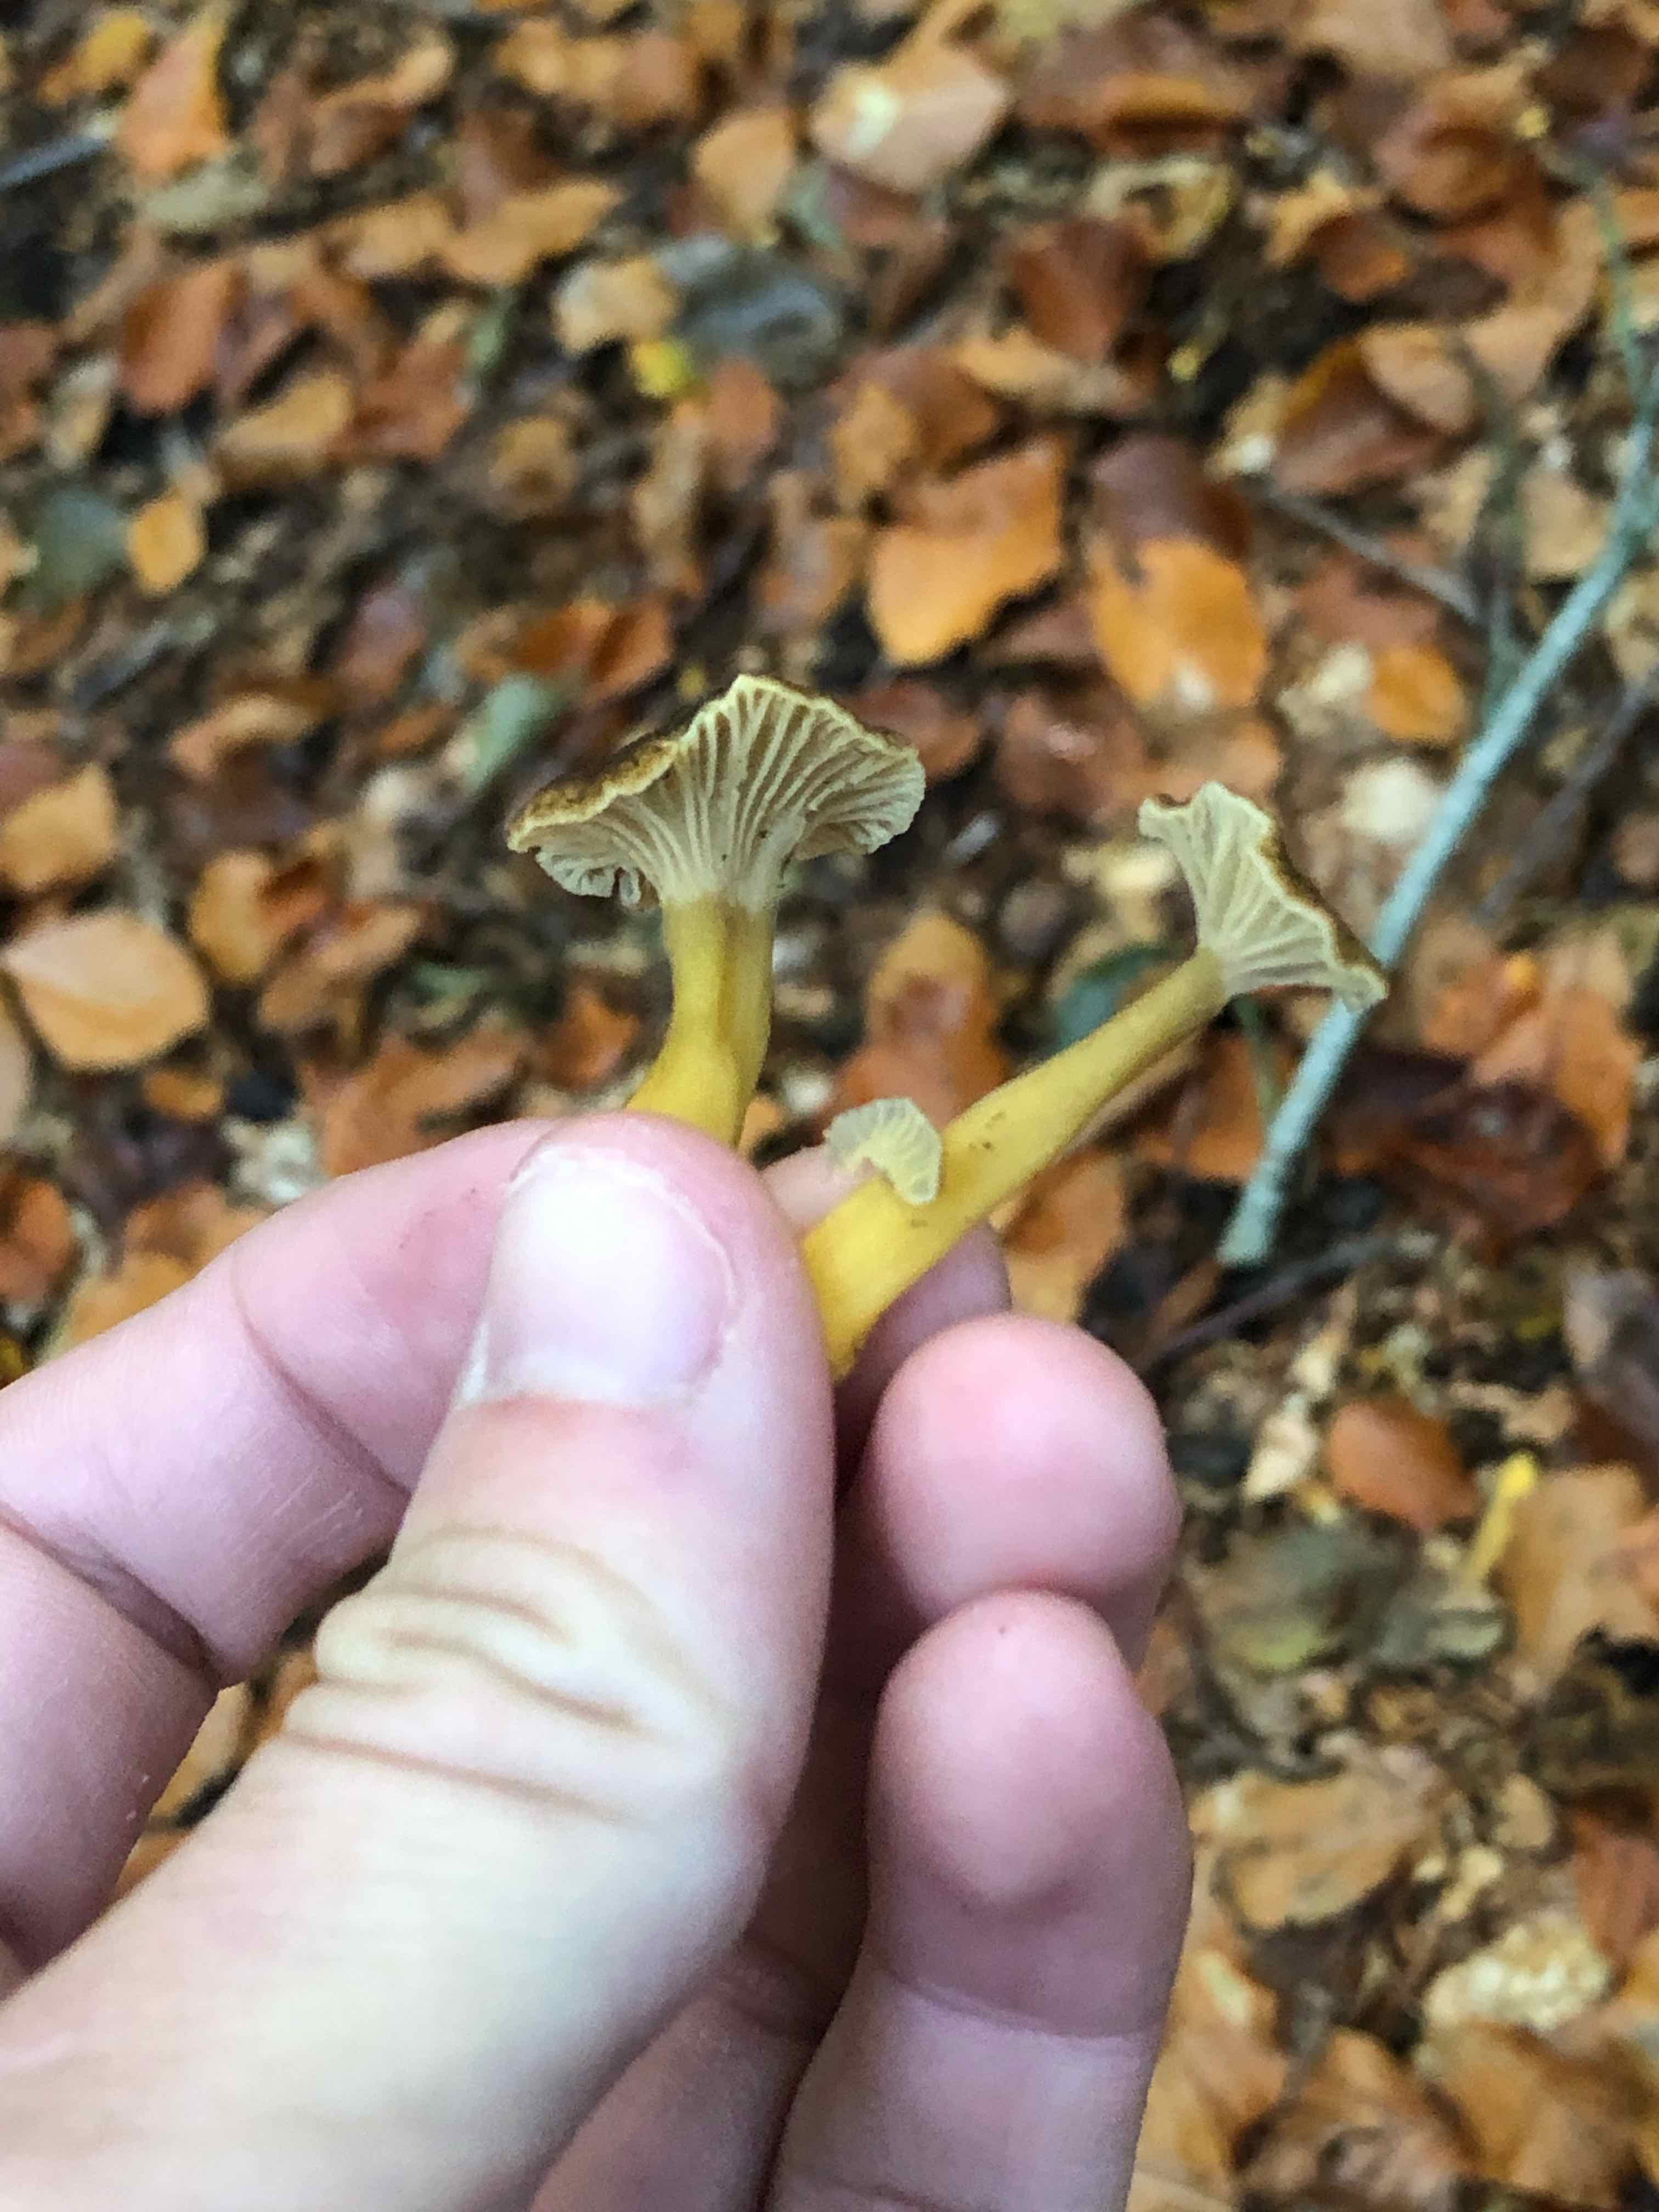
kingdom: Fungi
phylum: Basidiomycota
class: Agaricomycetes
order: Cantharellales
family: Hydnaceae
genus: Craterellus
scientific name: Craterellus tubaeformis
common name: tragt-kantarel
